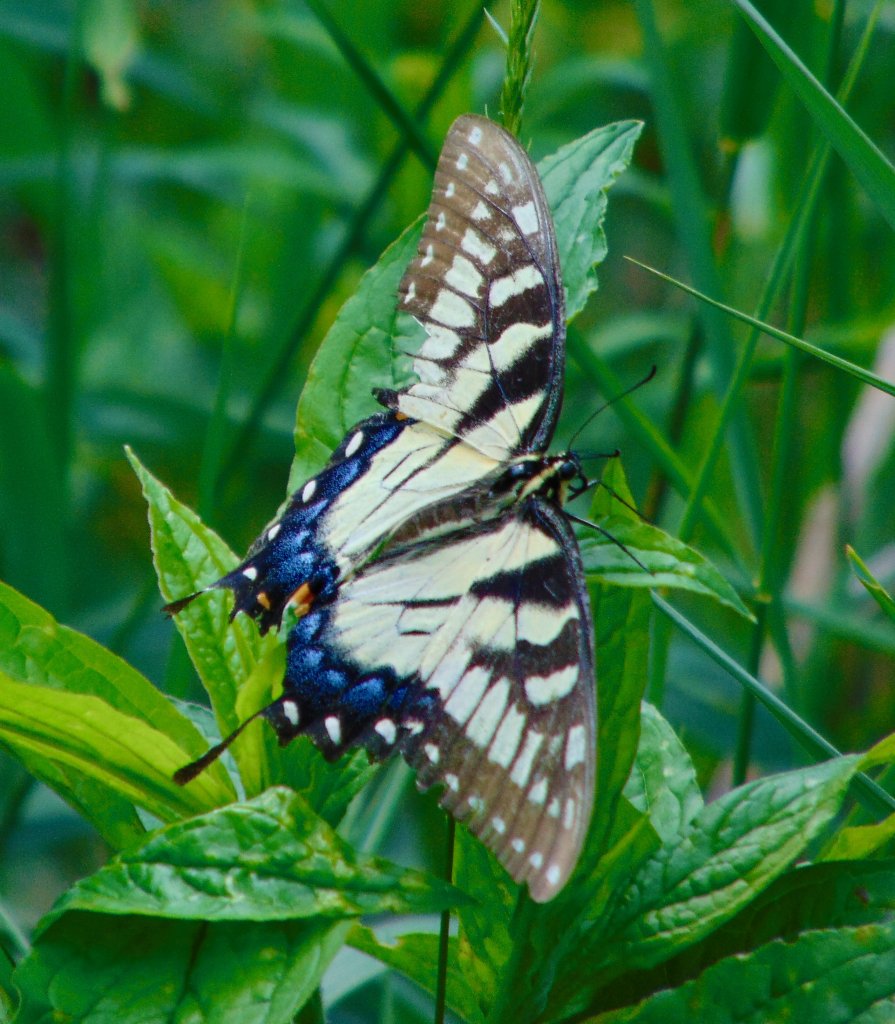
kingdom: Animalia
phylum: Arthropoda
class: Insecta
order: Lepidoptera
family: Papilionidae
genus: Pterourus
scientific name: Pterourus glaucus
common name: Eastern Tiger Swallowtail
